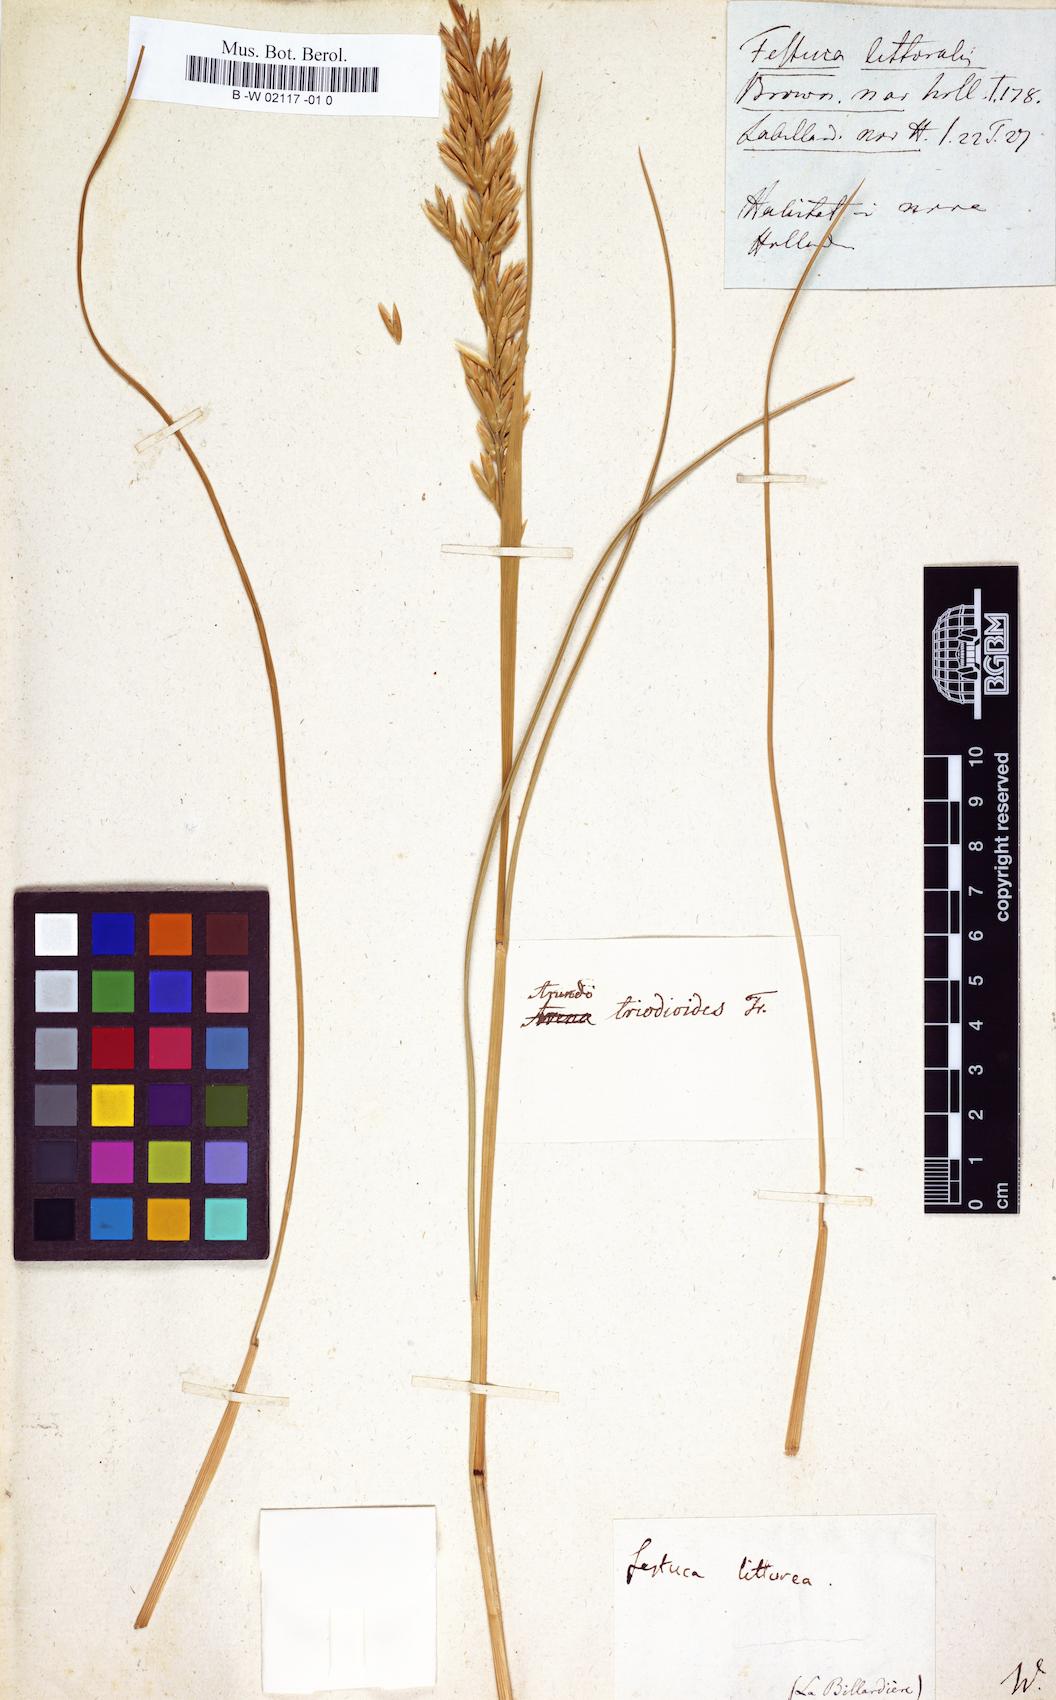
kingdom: Plantae
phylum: Tracheophyta
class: Liliopsida
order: Poales
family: Poaceae
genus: Poa
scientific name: Poa triodioides
